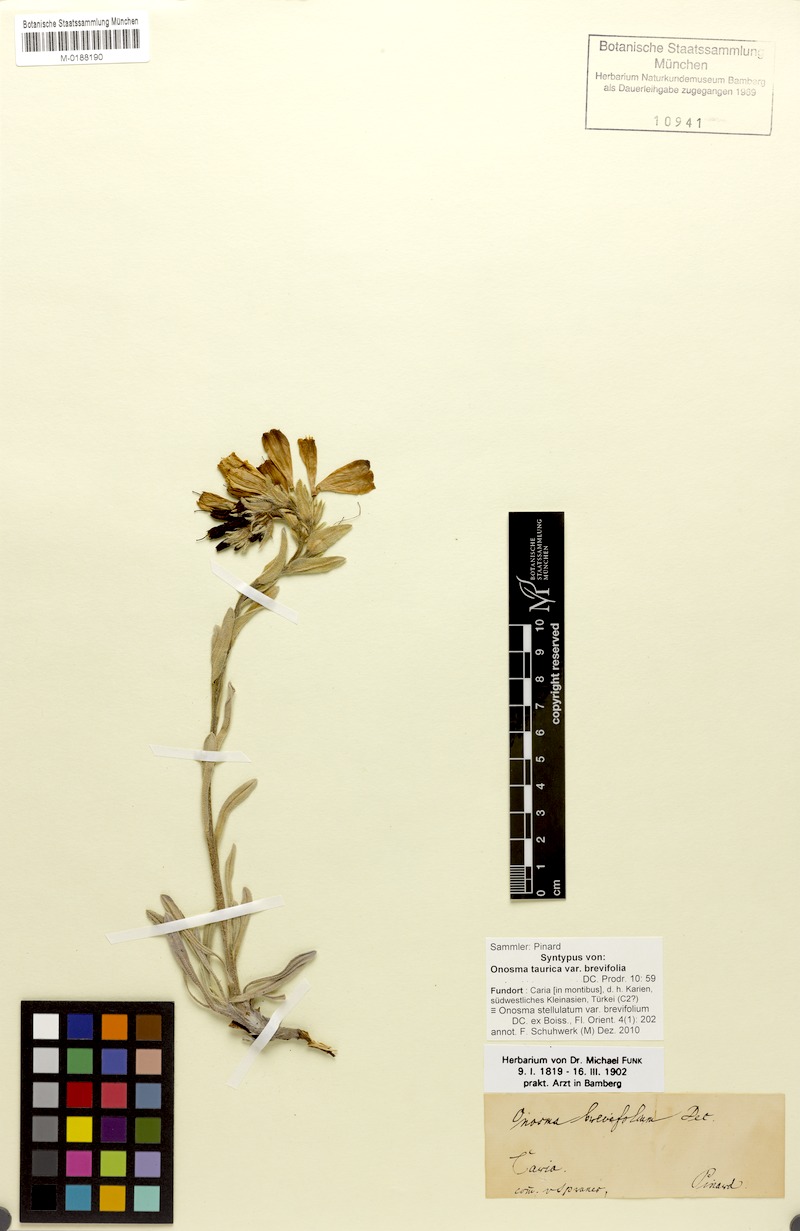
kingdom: Plantae
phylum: Tracheophyta
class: Magnoliopsida
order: Boraginales
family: Boraginaceae
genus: Onosma
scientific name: Onosma taurica
